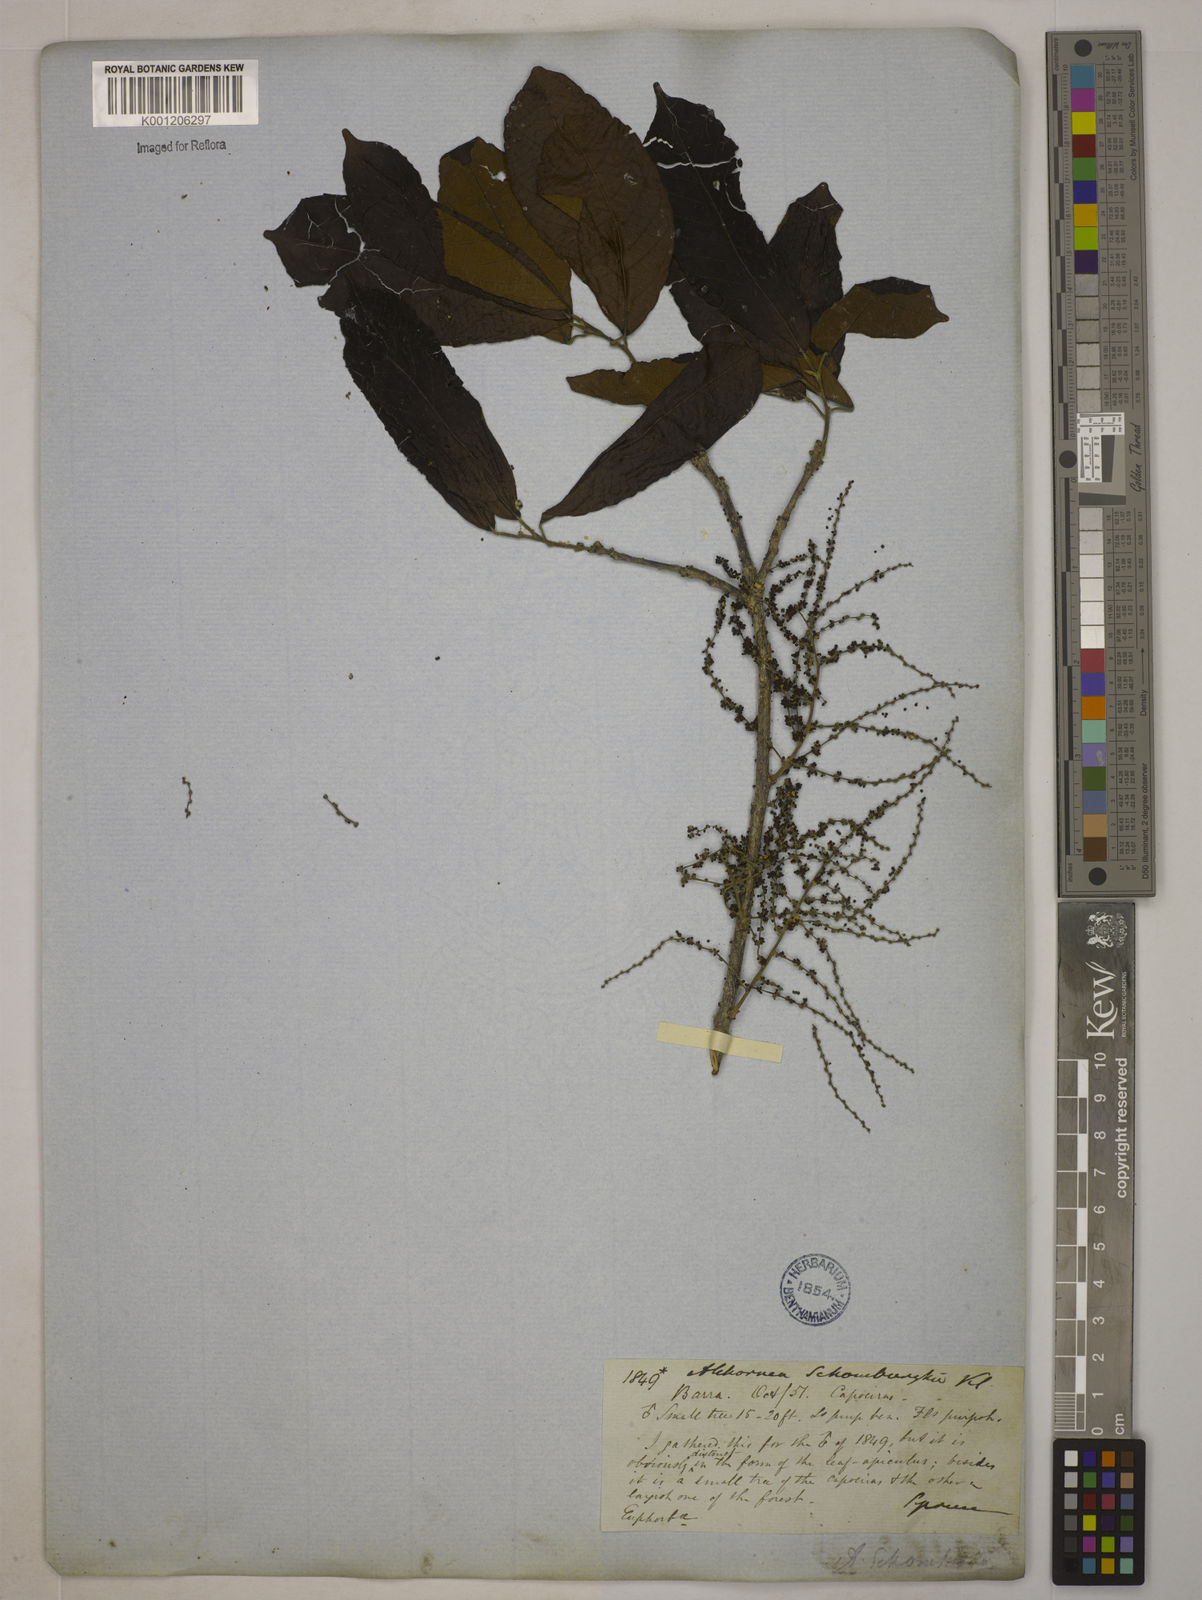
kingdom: Plantae
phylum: Tracheophyta
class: Magnoliopsida
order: Malpighiales
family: Euphorbiaceae
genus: Alchornea
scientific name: Alchornea discolor
